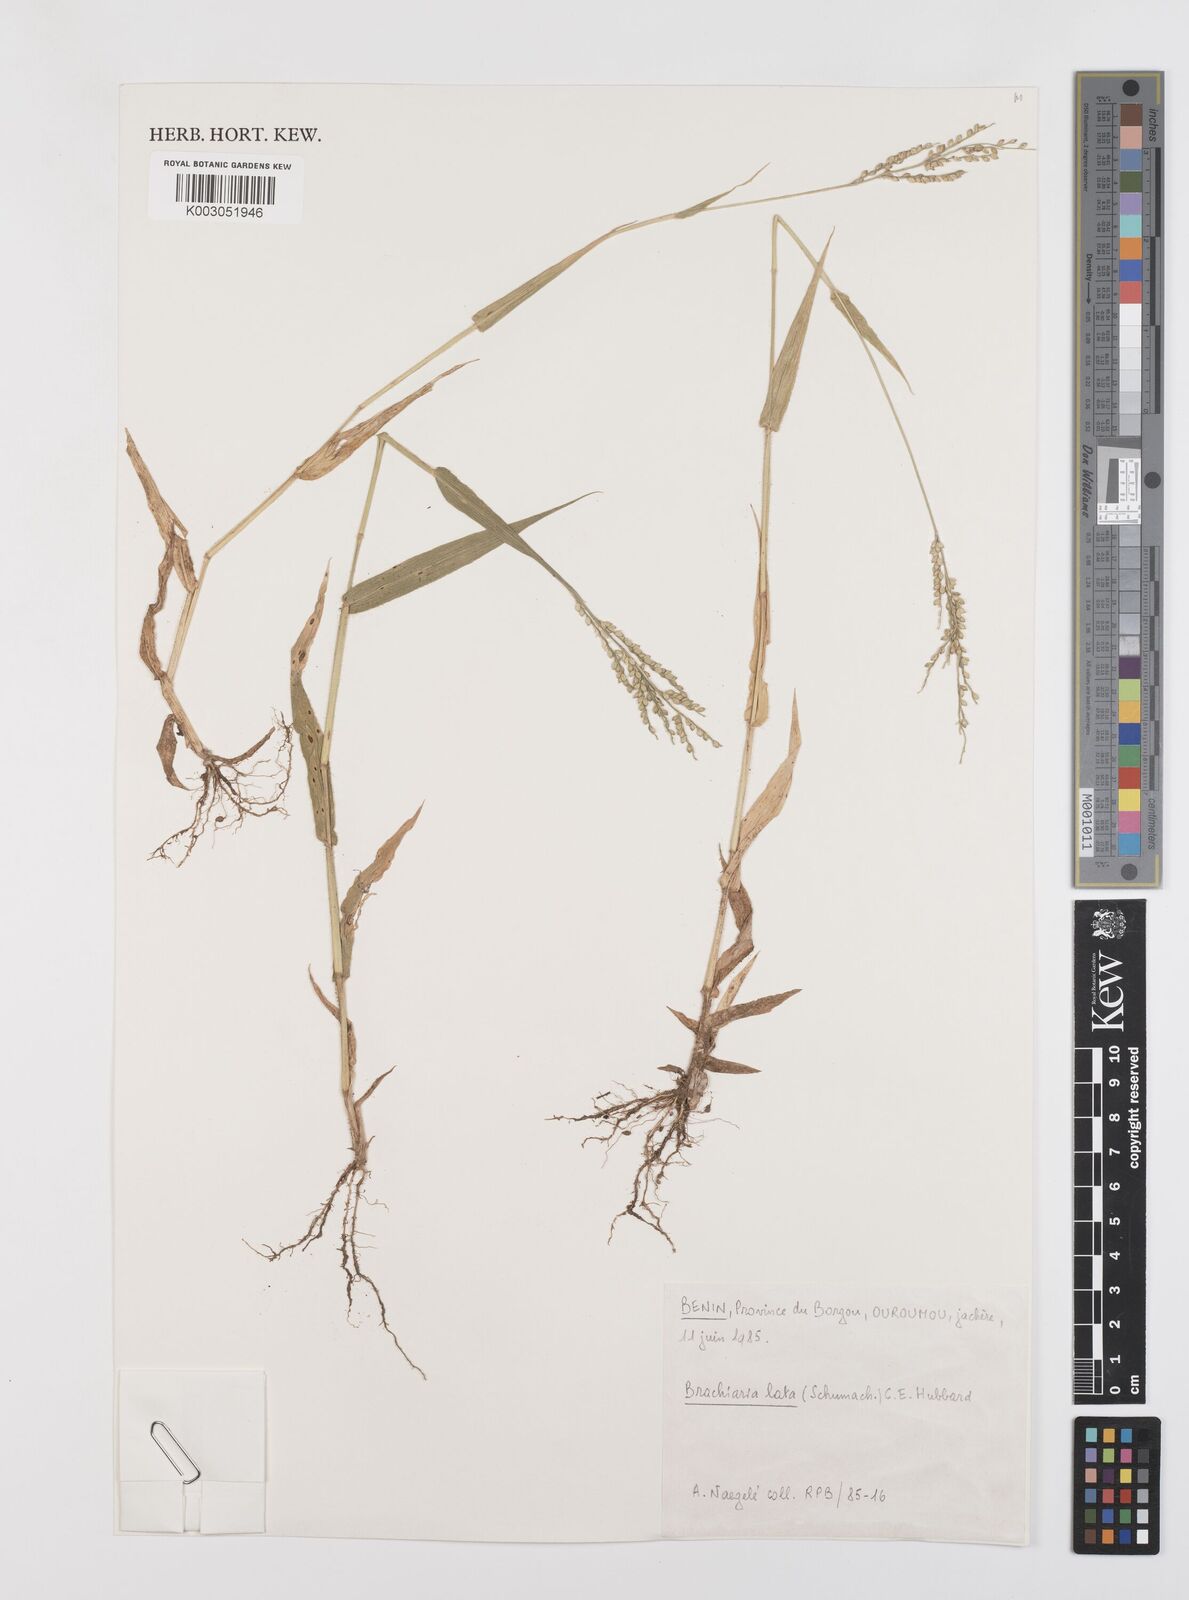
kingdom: Plantae
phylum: Tracheophyta
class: Liliopsida
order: Poales
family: Poaceae
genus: Urochloa
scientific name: Urochloa lata
